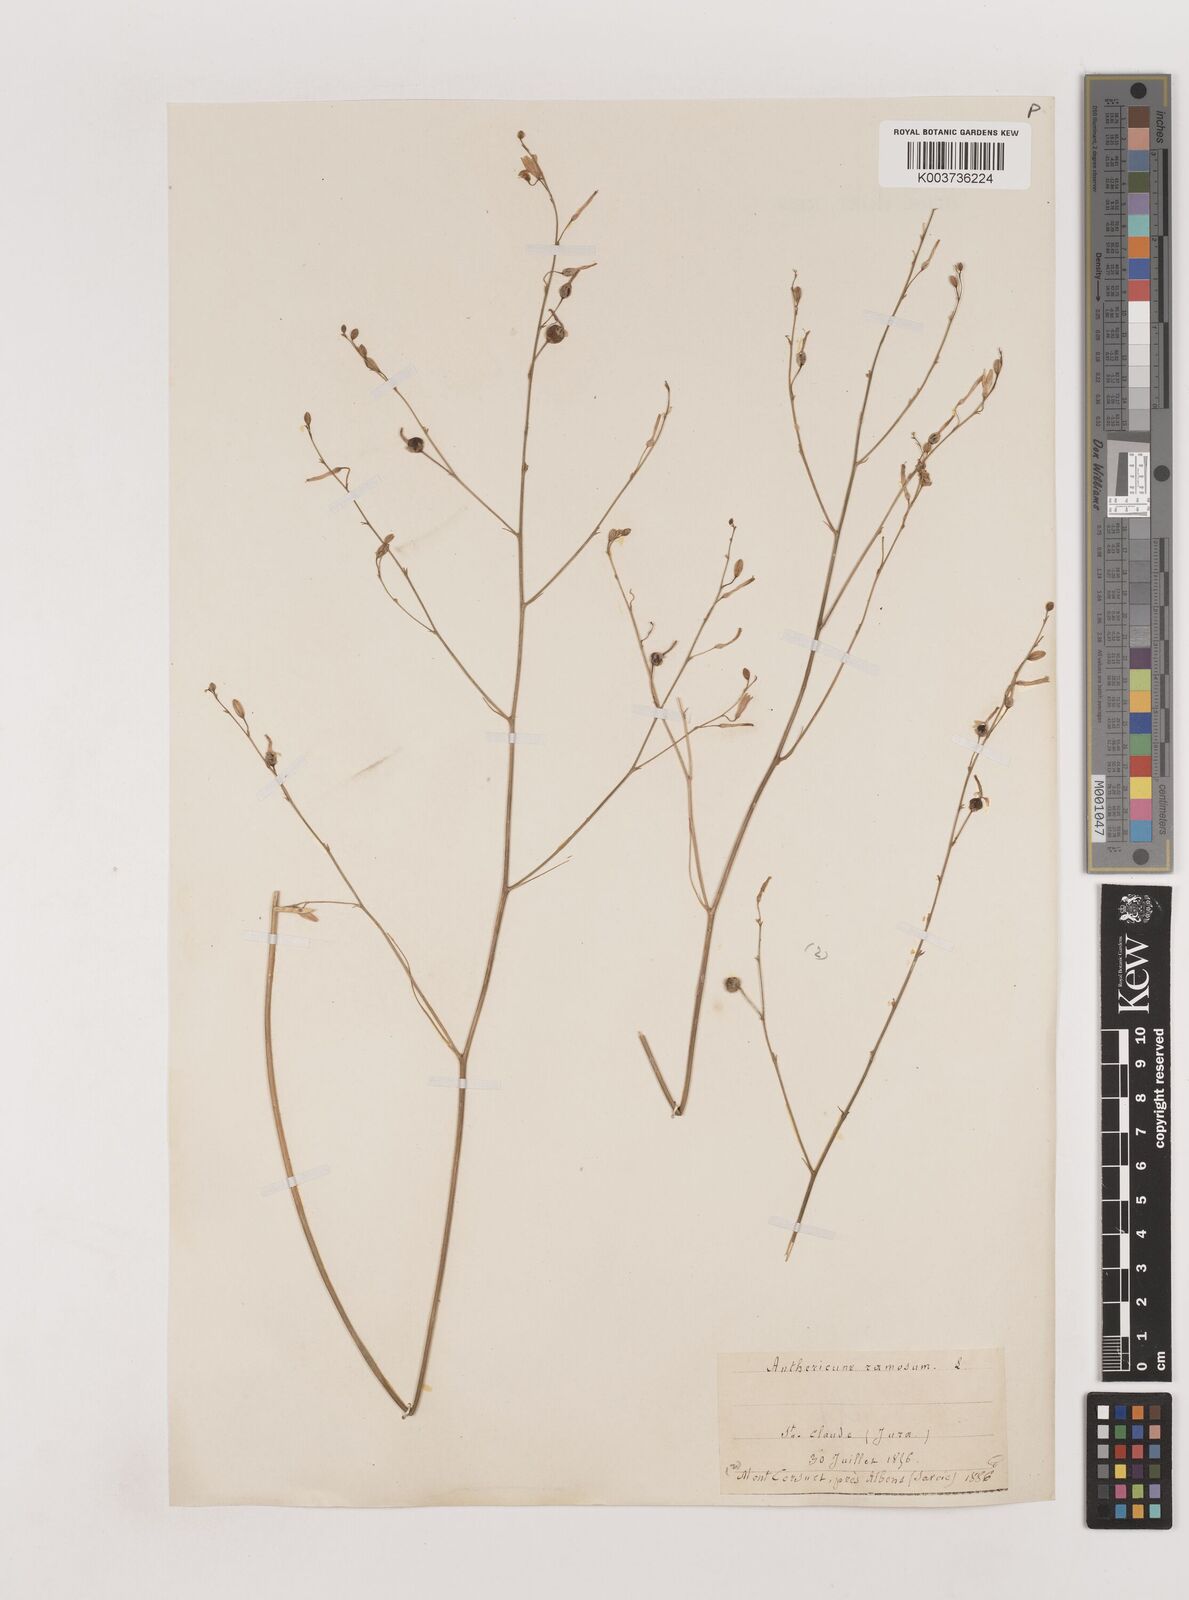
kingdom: Plantae
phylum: Tracheophyta
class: Liliopsida
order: Asparagales
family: Asparagaceae
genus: Anthericum
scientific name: Anthericum ramosum
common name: Branched st. bernard's-lily
